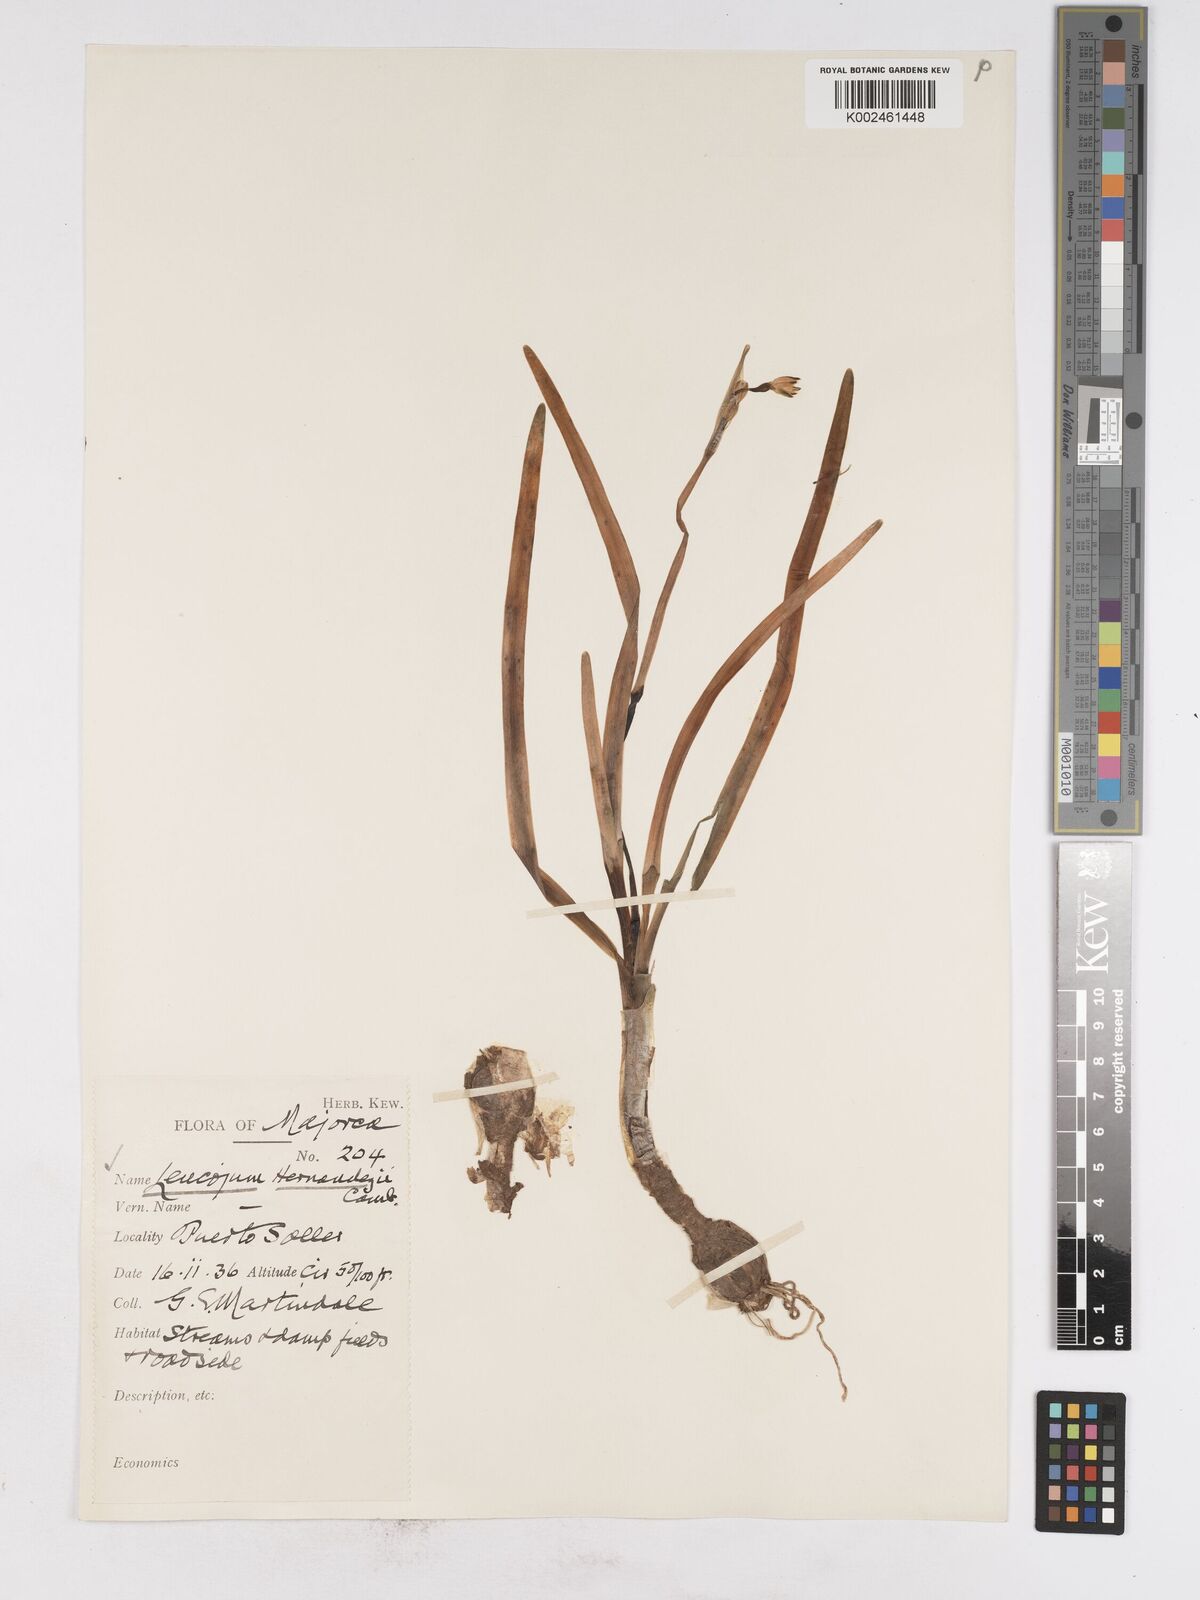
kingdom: Plantae
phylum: Tracheophyta
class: Liliopsida
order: Asparagales
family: Amaryllidaceae
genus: Leucojum
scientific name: Leucojum aestivum
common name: Summer snowflake
